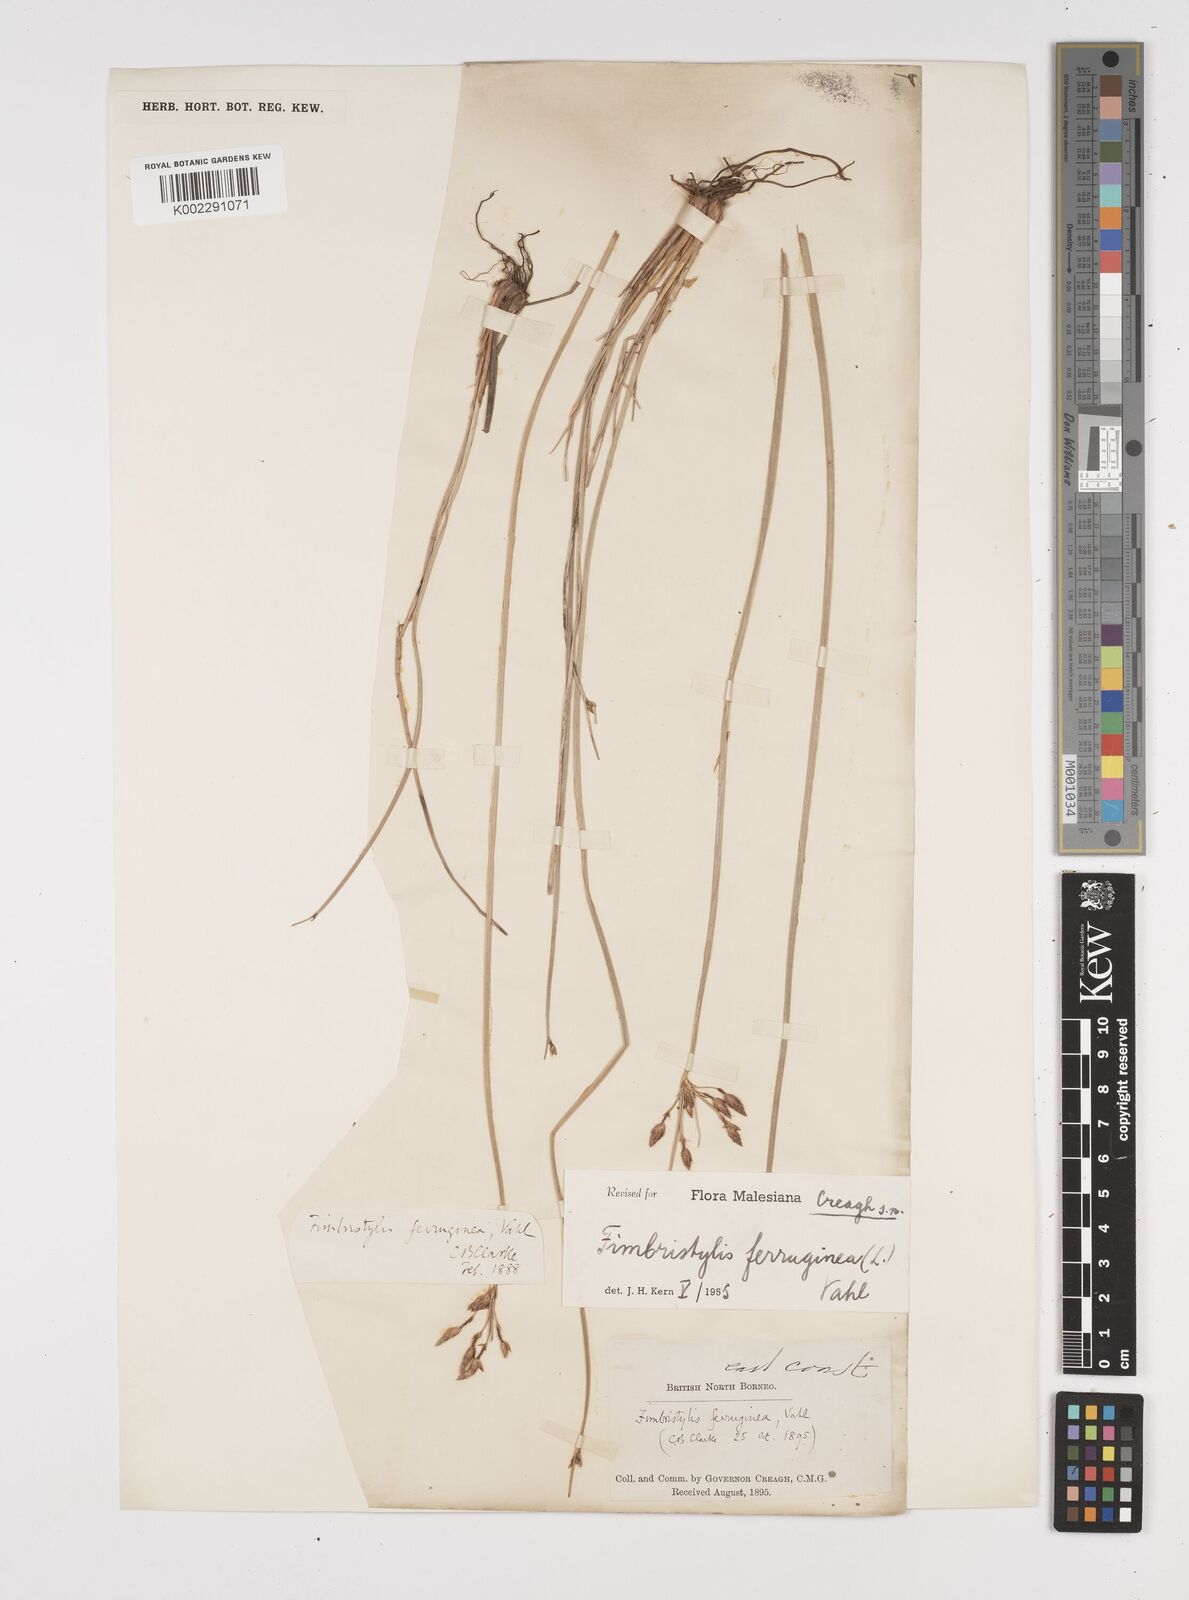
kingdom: Plantae
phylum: Tracheophyta
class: Liliopsida
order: Poales
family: Cyperaceae
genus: Fimbristylis
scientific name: Fimbristylis ferruginea
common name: West indian fimbry
